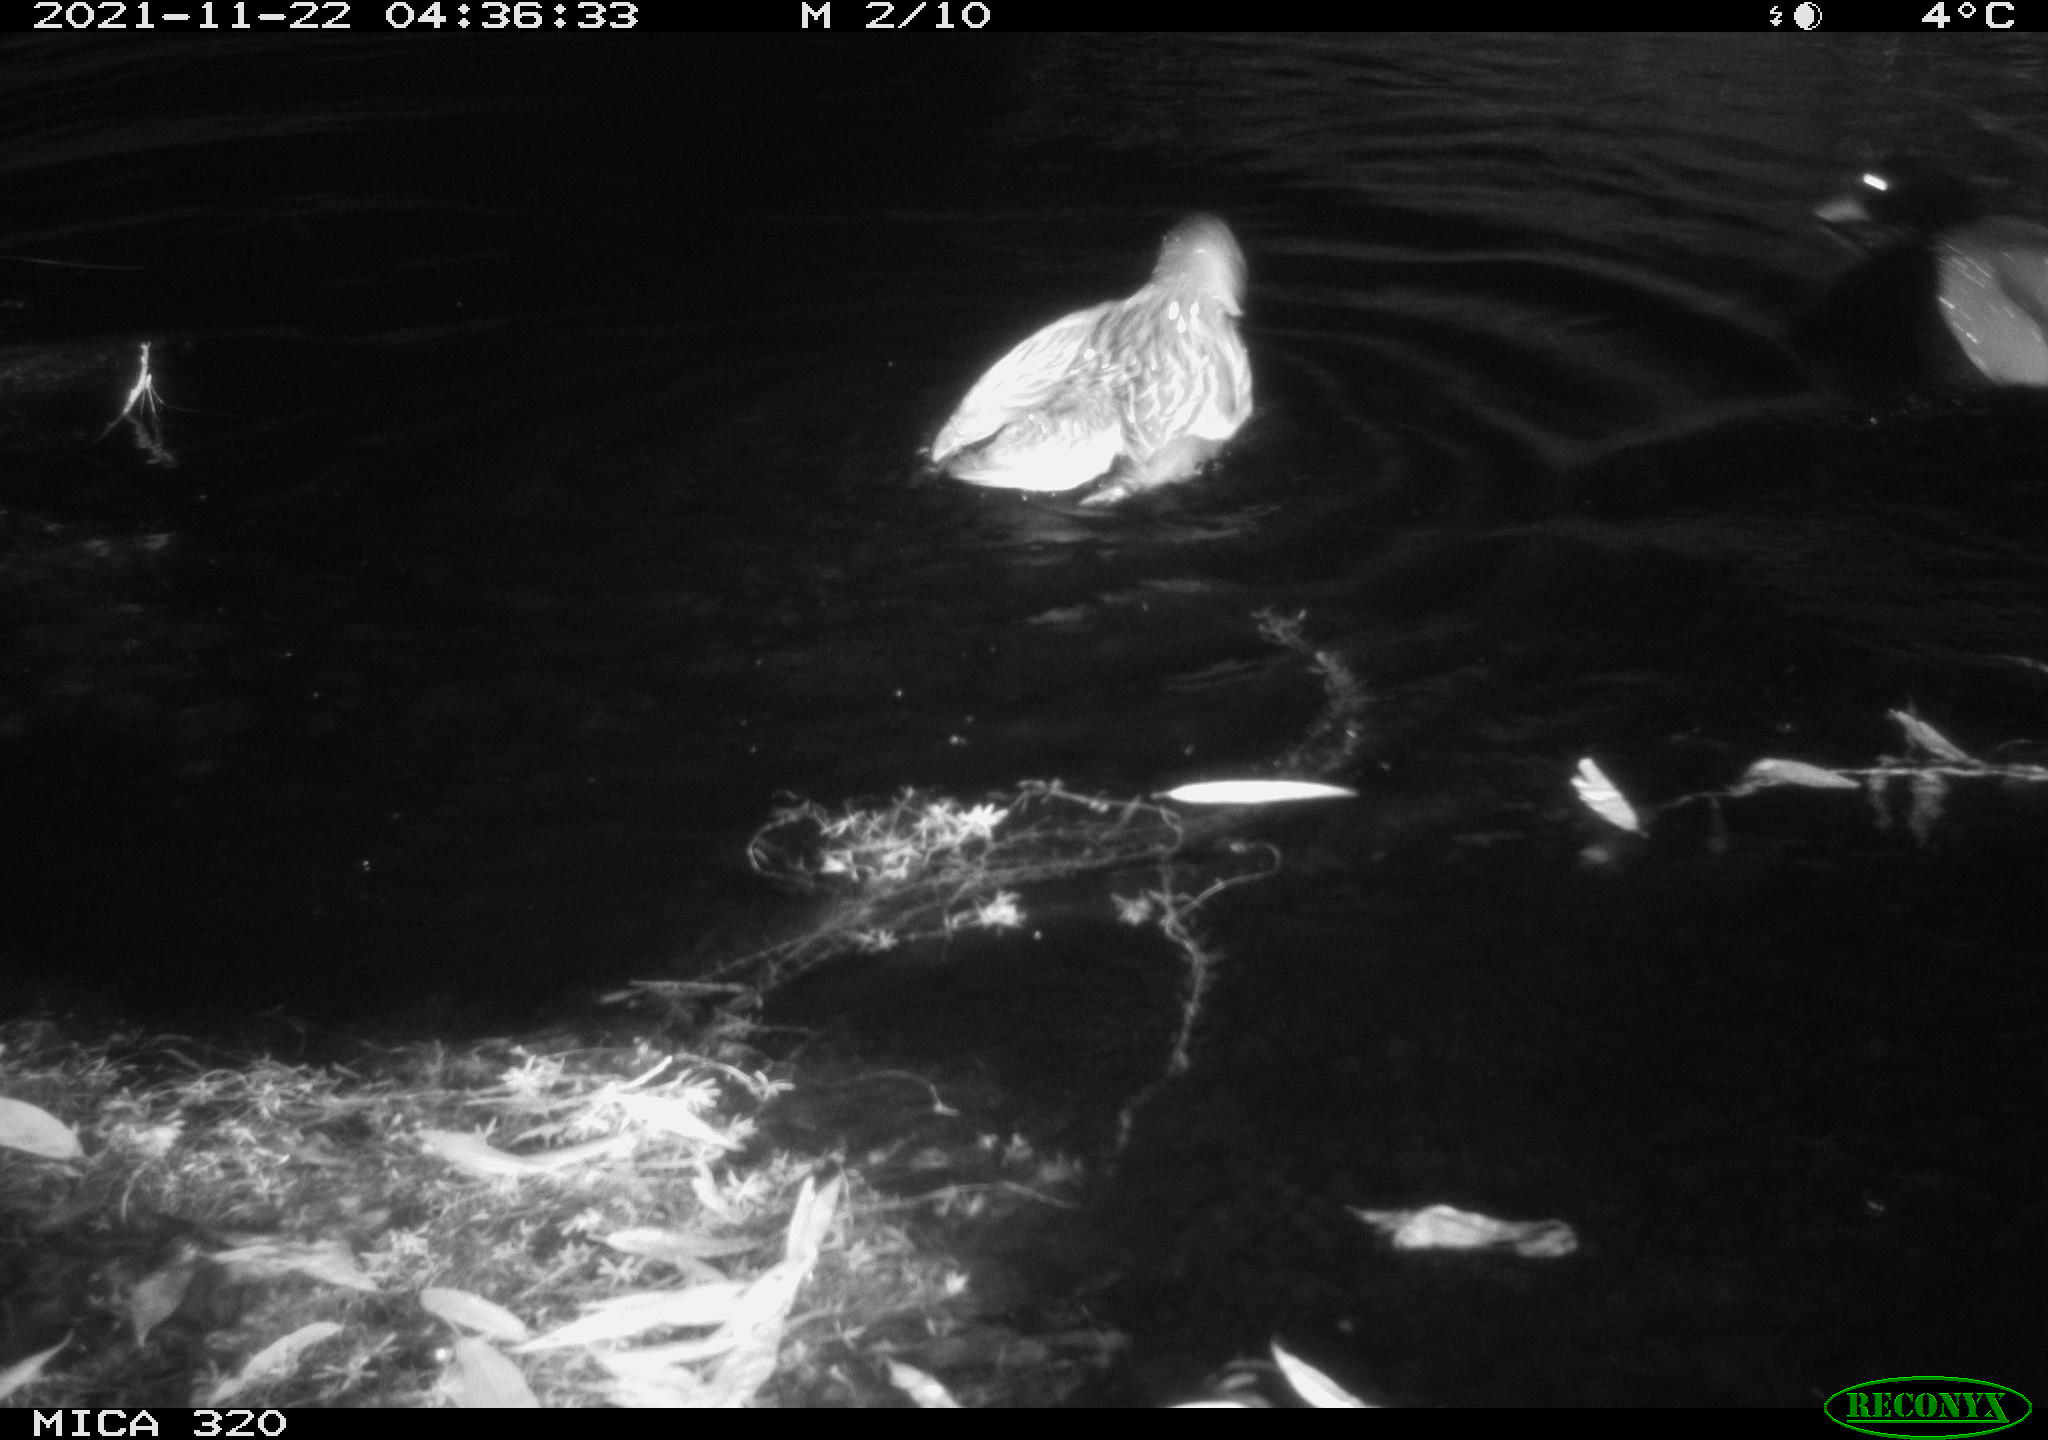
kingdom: Animalia
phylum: Chordata
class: Aves
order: Anseriformes
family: Anatidae
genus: Mareca
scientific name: Mareca strepera
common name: Gadwall
